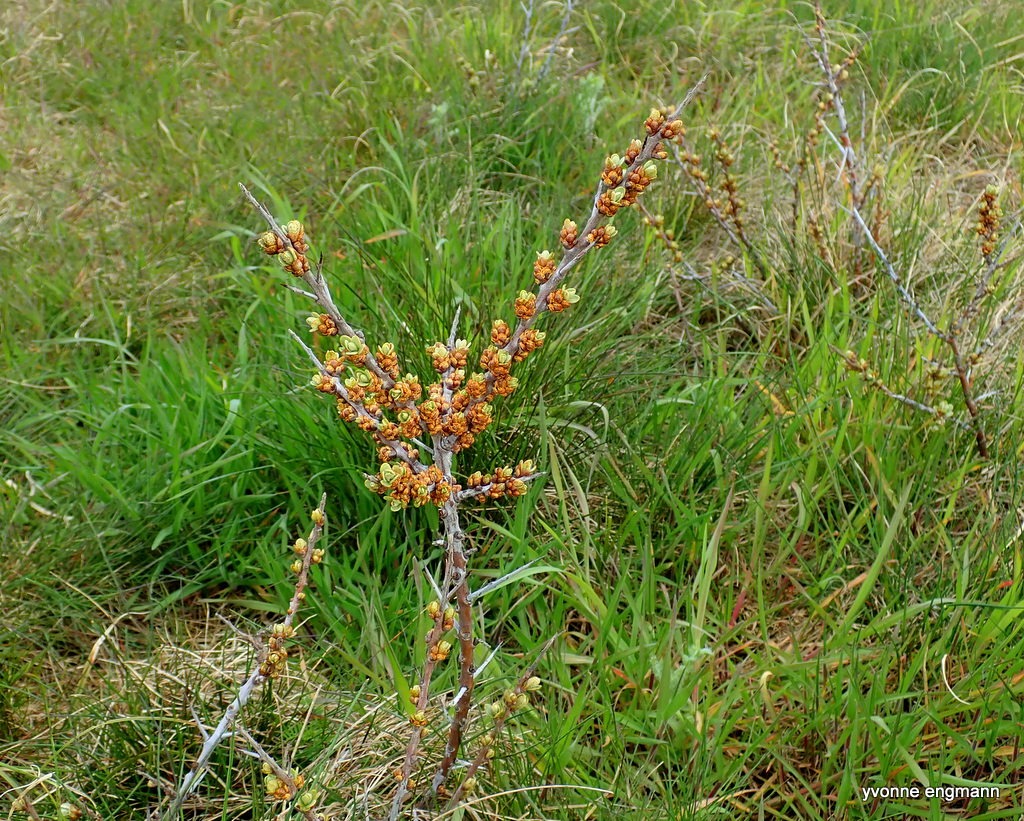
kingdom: Plantae
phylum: Tracheophyta
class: Magnoliopsida
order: Rosales
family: Elaeagnaceae
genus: Hippophae
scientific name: Hippophae rhamnoides
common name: Havtorn
